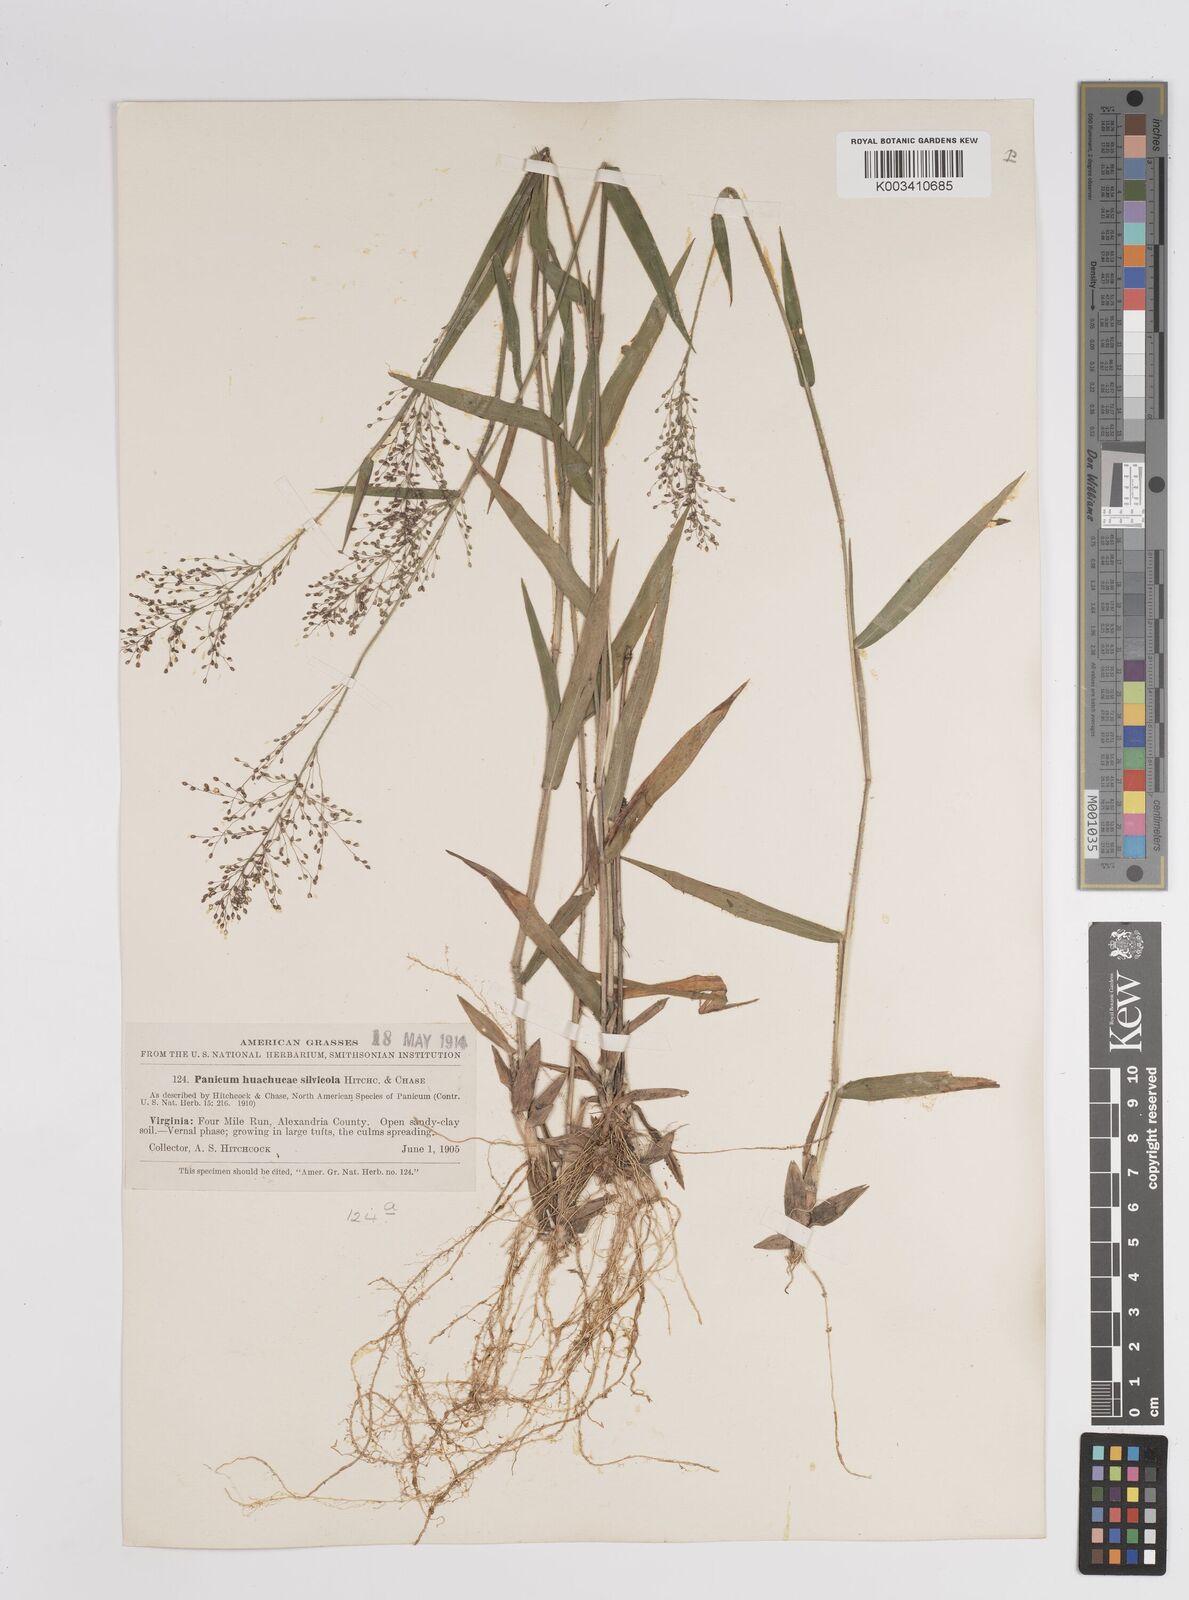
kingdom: Plantae
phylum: Tracheophyta
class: Liliopsida
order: Poales
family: Poaceae
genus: Dichanthelium
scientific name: Dichanthelium lanuginosum
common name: Woolly panicgrass
